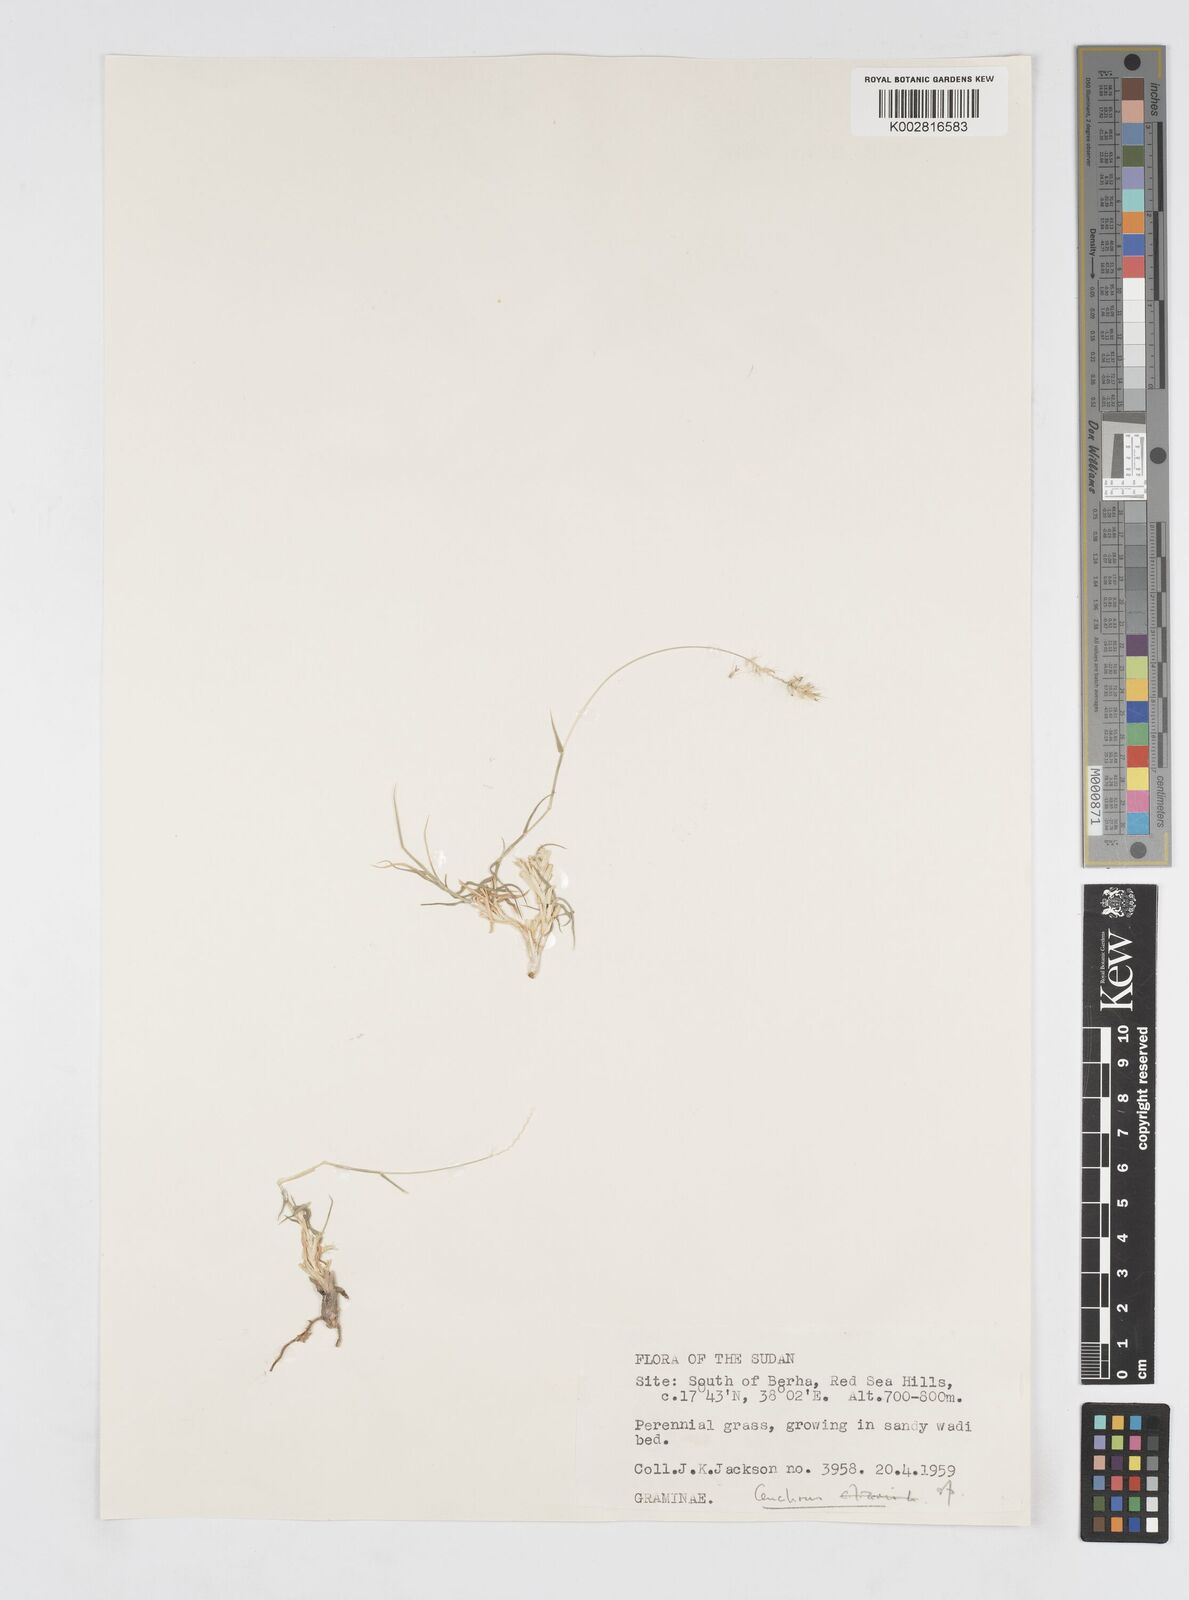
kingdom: Plantae
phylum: Tracheophyta
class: Liliopsida
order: Poales
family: Poaceae
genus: Cenchrus
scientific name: Cenchrus ciliaris
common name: Buffelgrass
